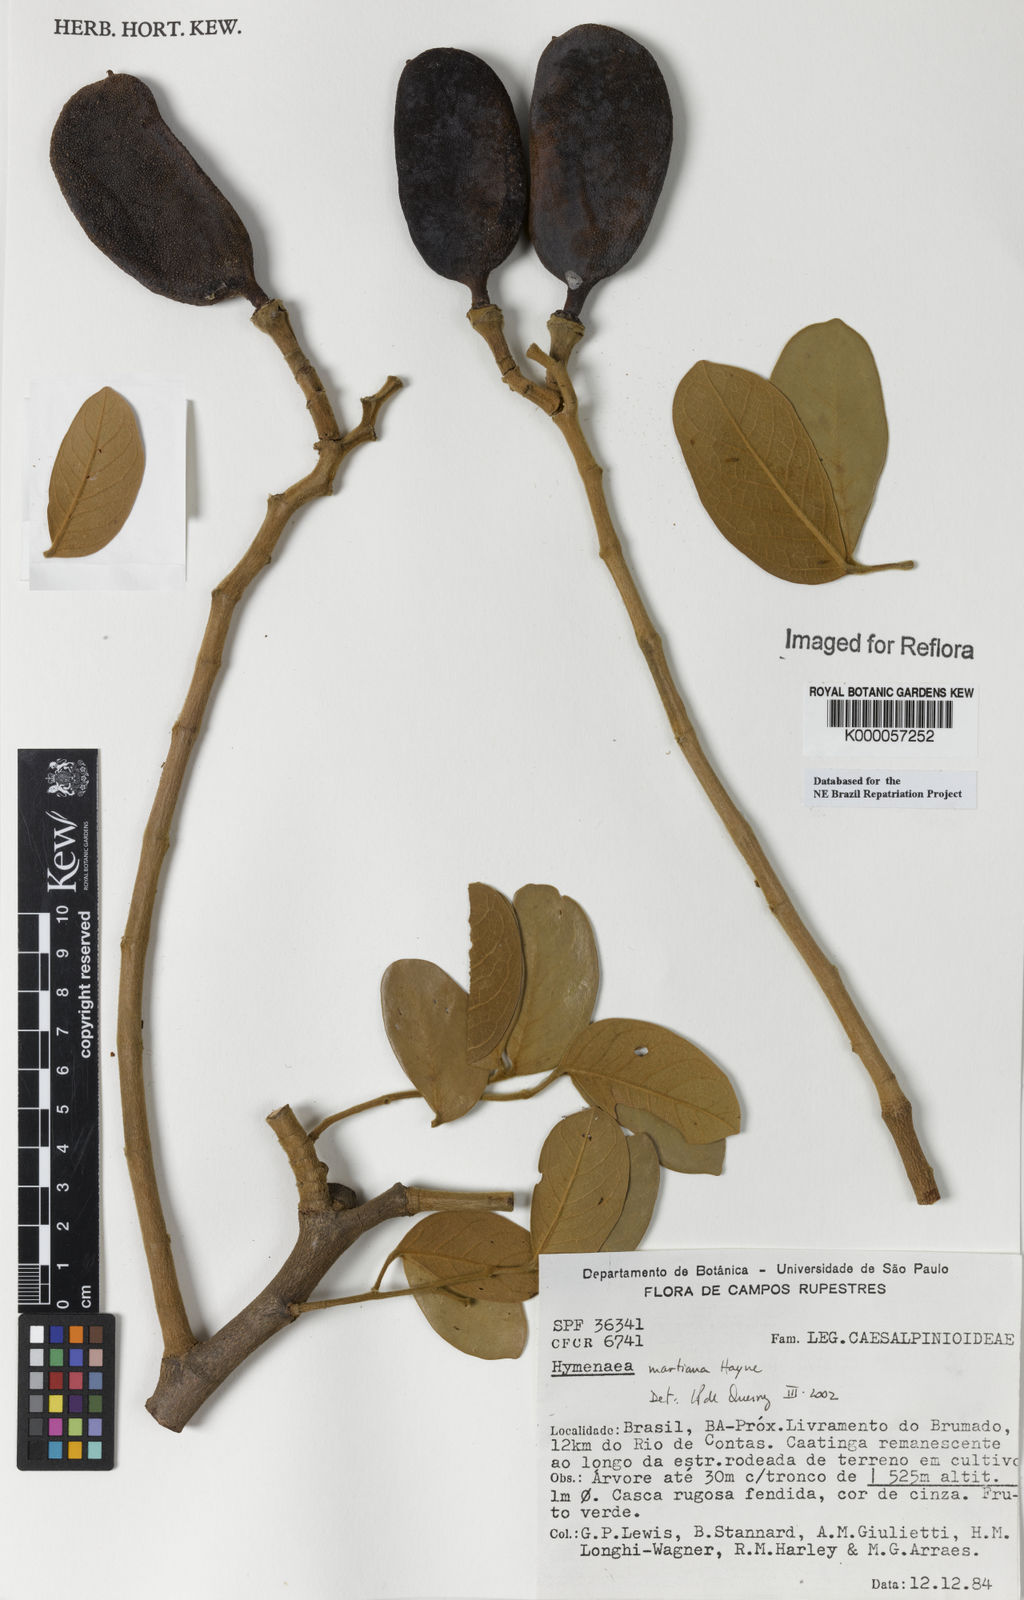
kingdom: Plantae
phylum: Tracheophyta
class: Magnoliopsida
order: Fabales
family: Fabaceae
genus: Hymenaea
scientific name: Hymenaea martiana
